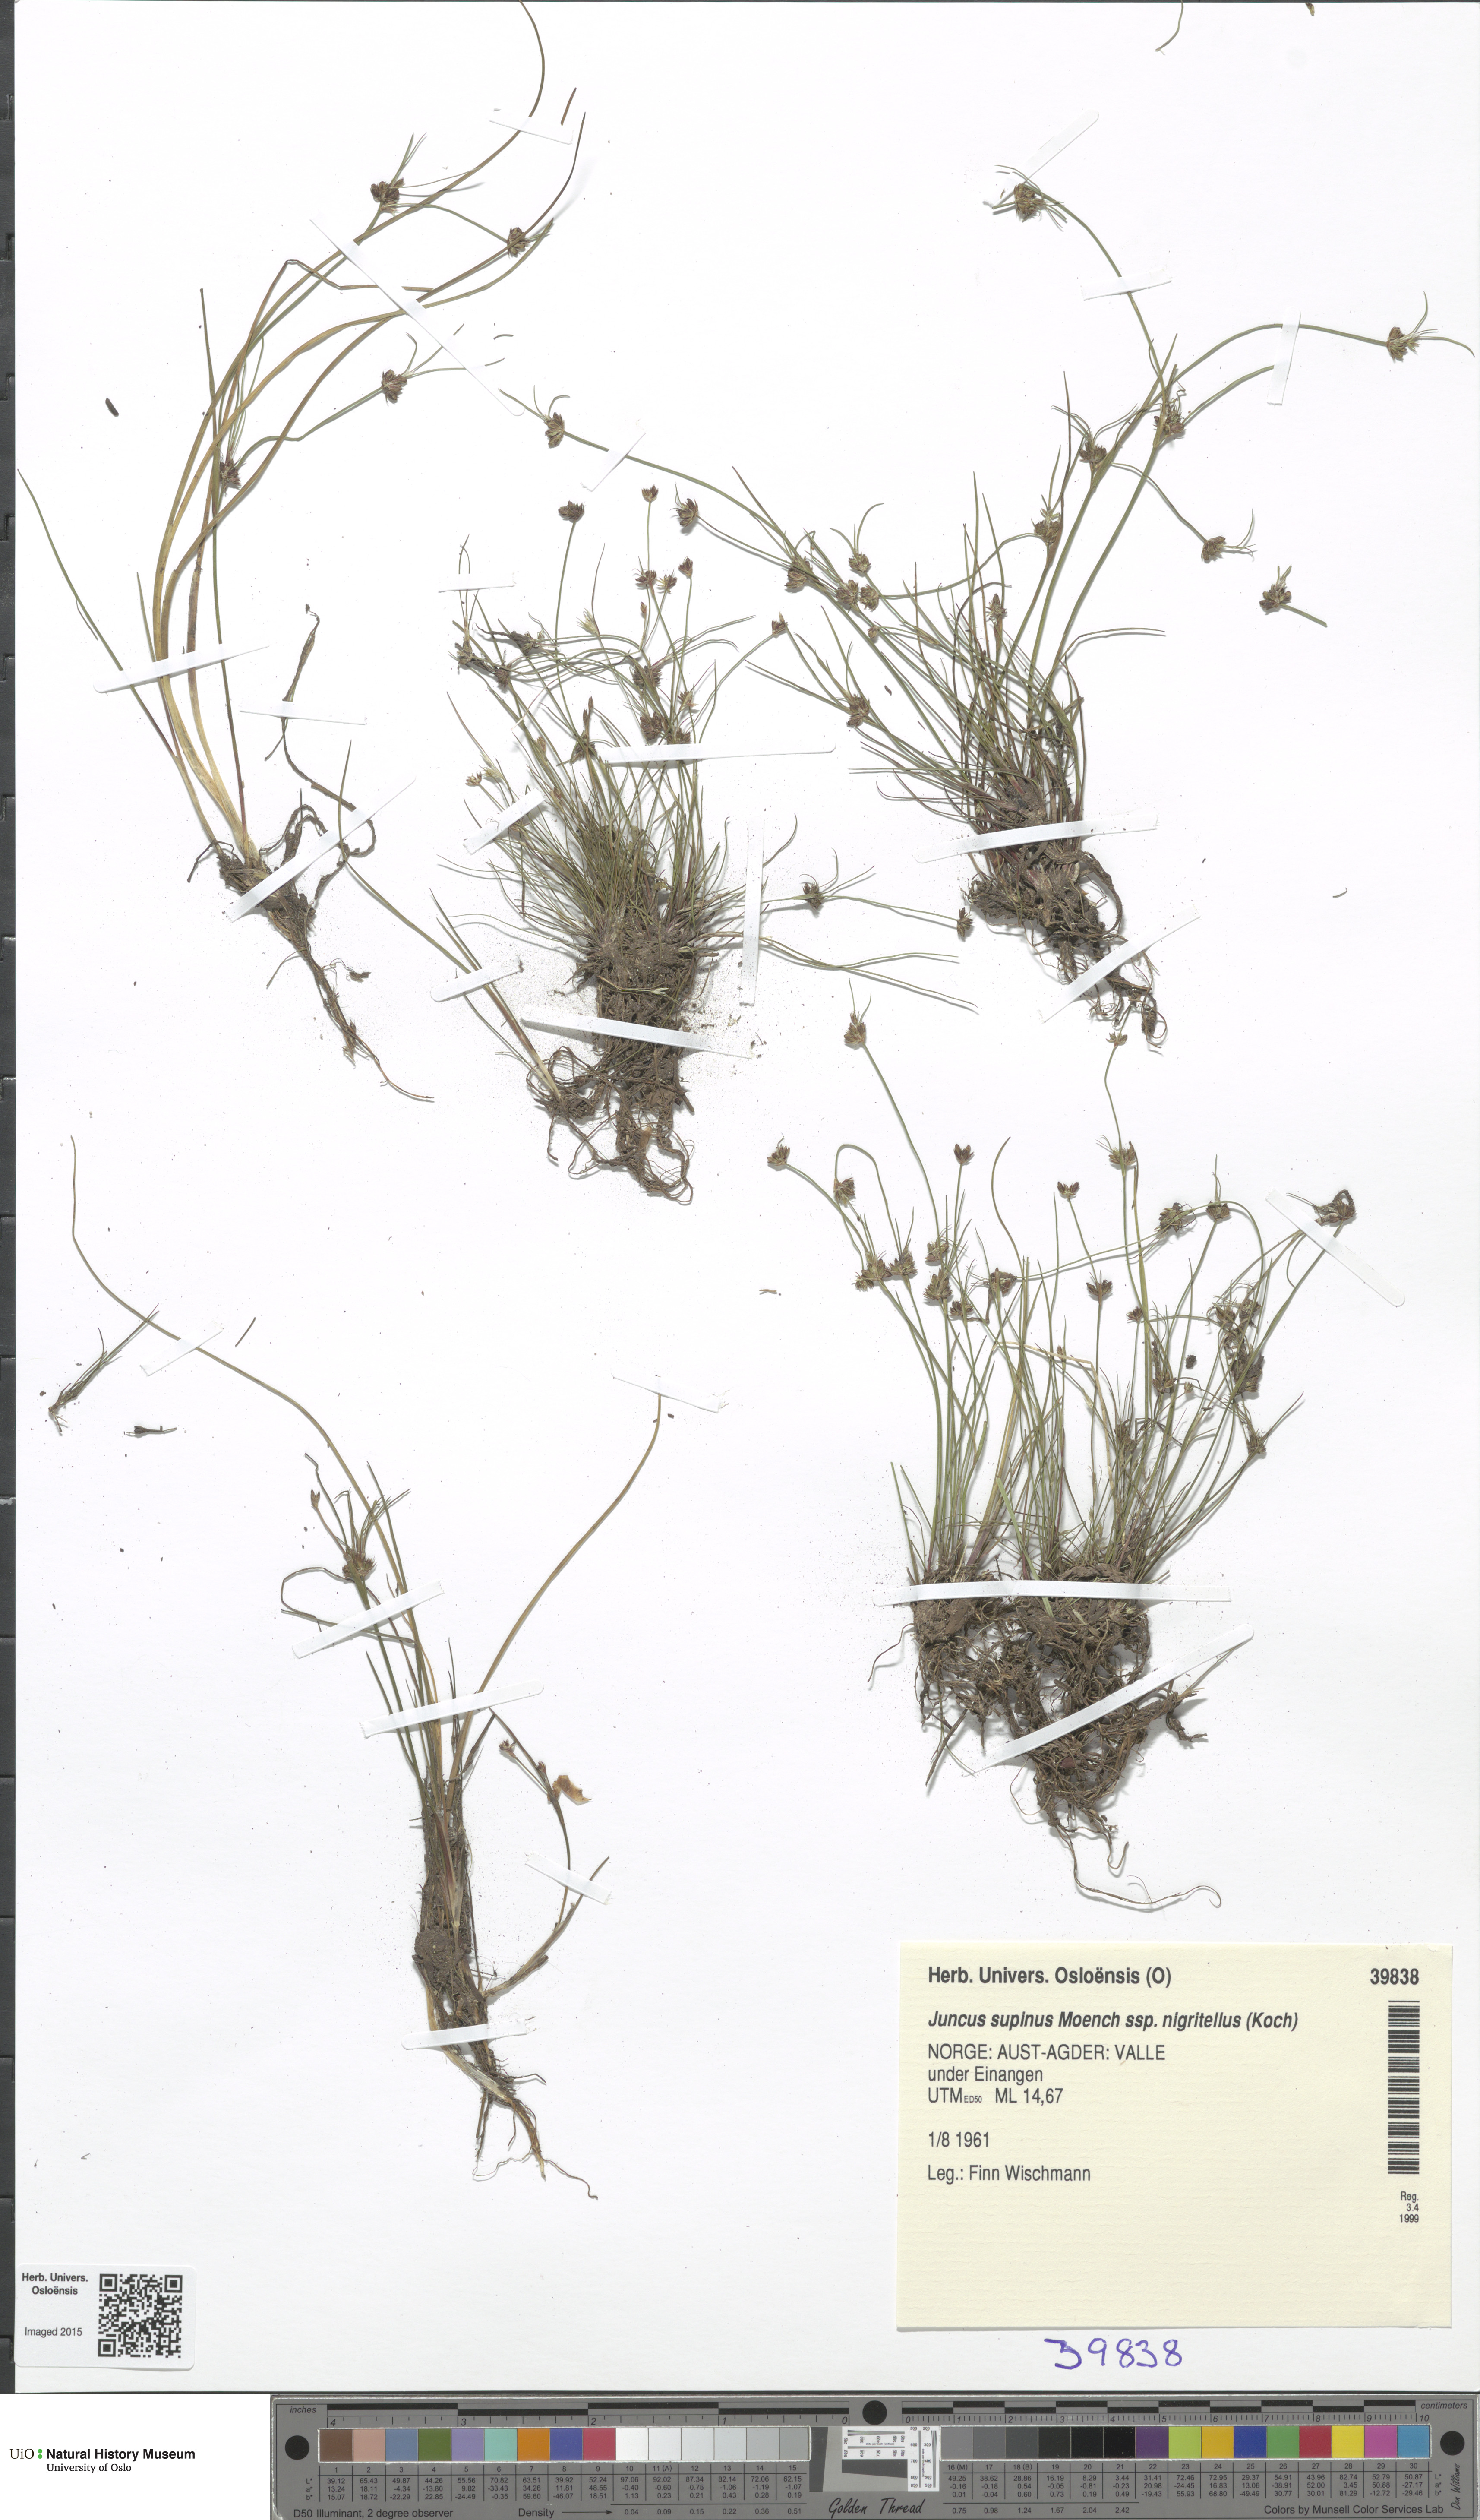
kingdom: Plantae
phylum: Tracheophyta
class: Liliopsida
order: Poales
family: Juncaceae
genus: Juncus
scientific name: Juncus bulbosus
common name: Bulbous rush
